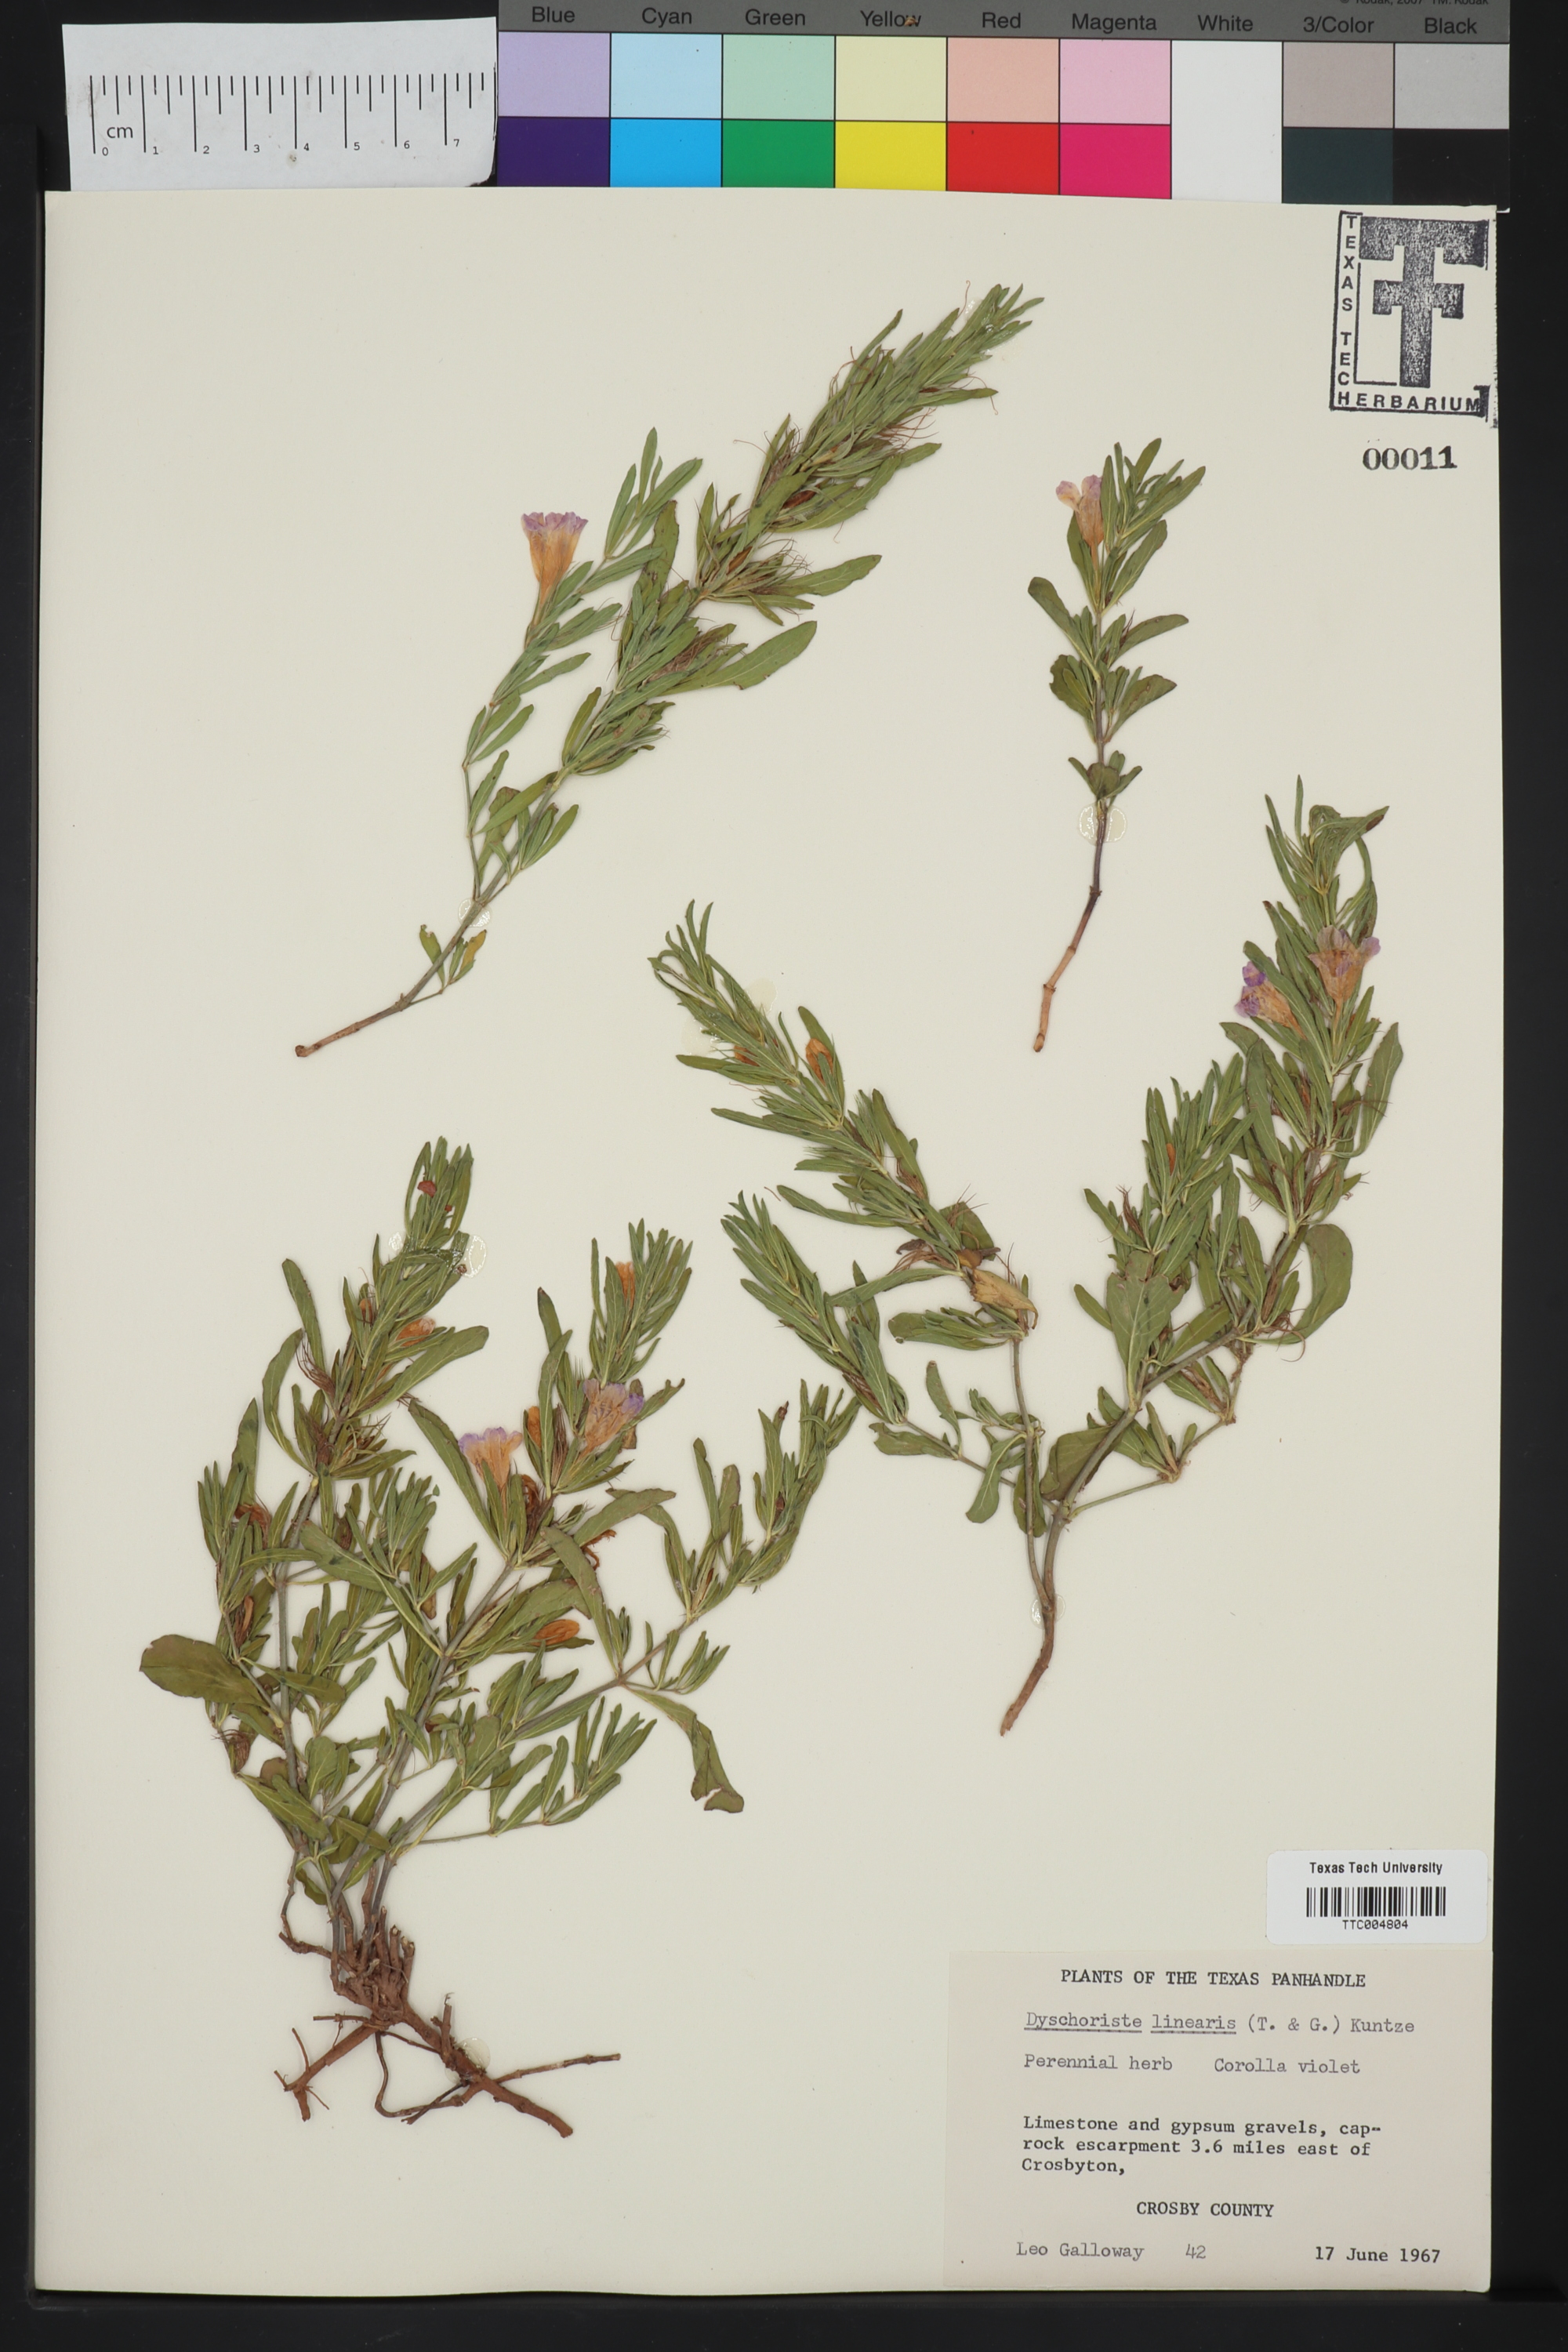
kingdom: Plantae
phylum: Tracheophyta
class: Magnoliopsida
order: Lamiales
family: Acanthaceae
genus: Dyschoriste
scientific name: Dyschoriste linearis
